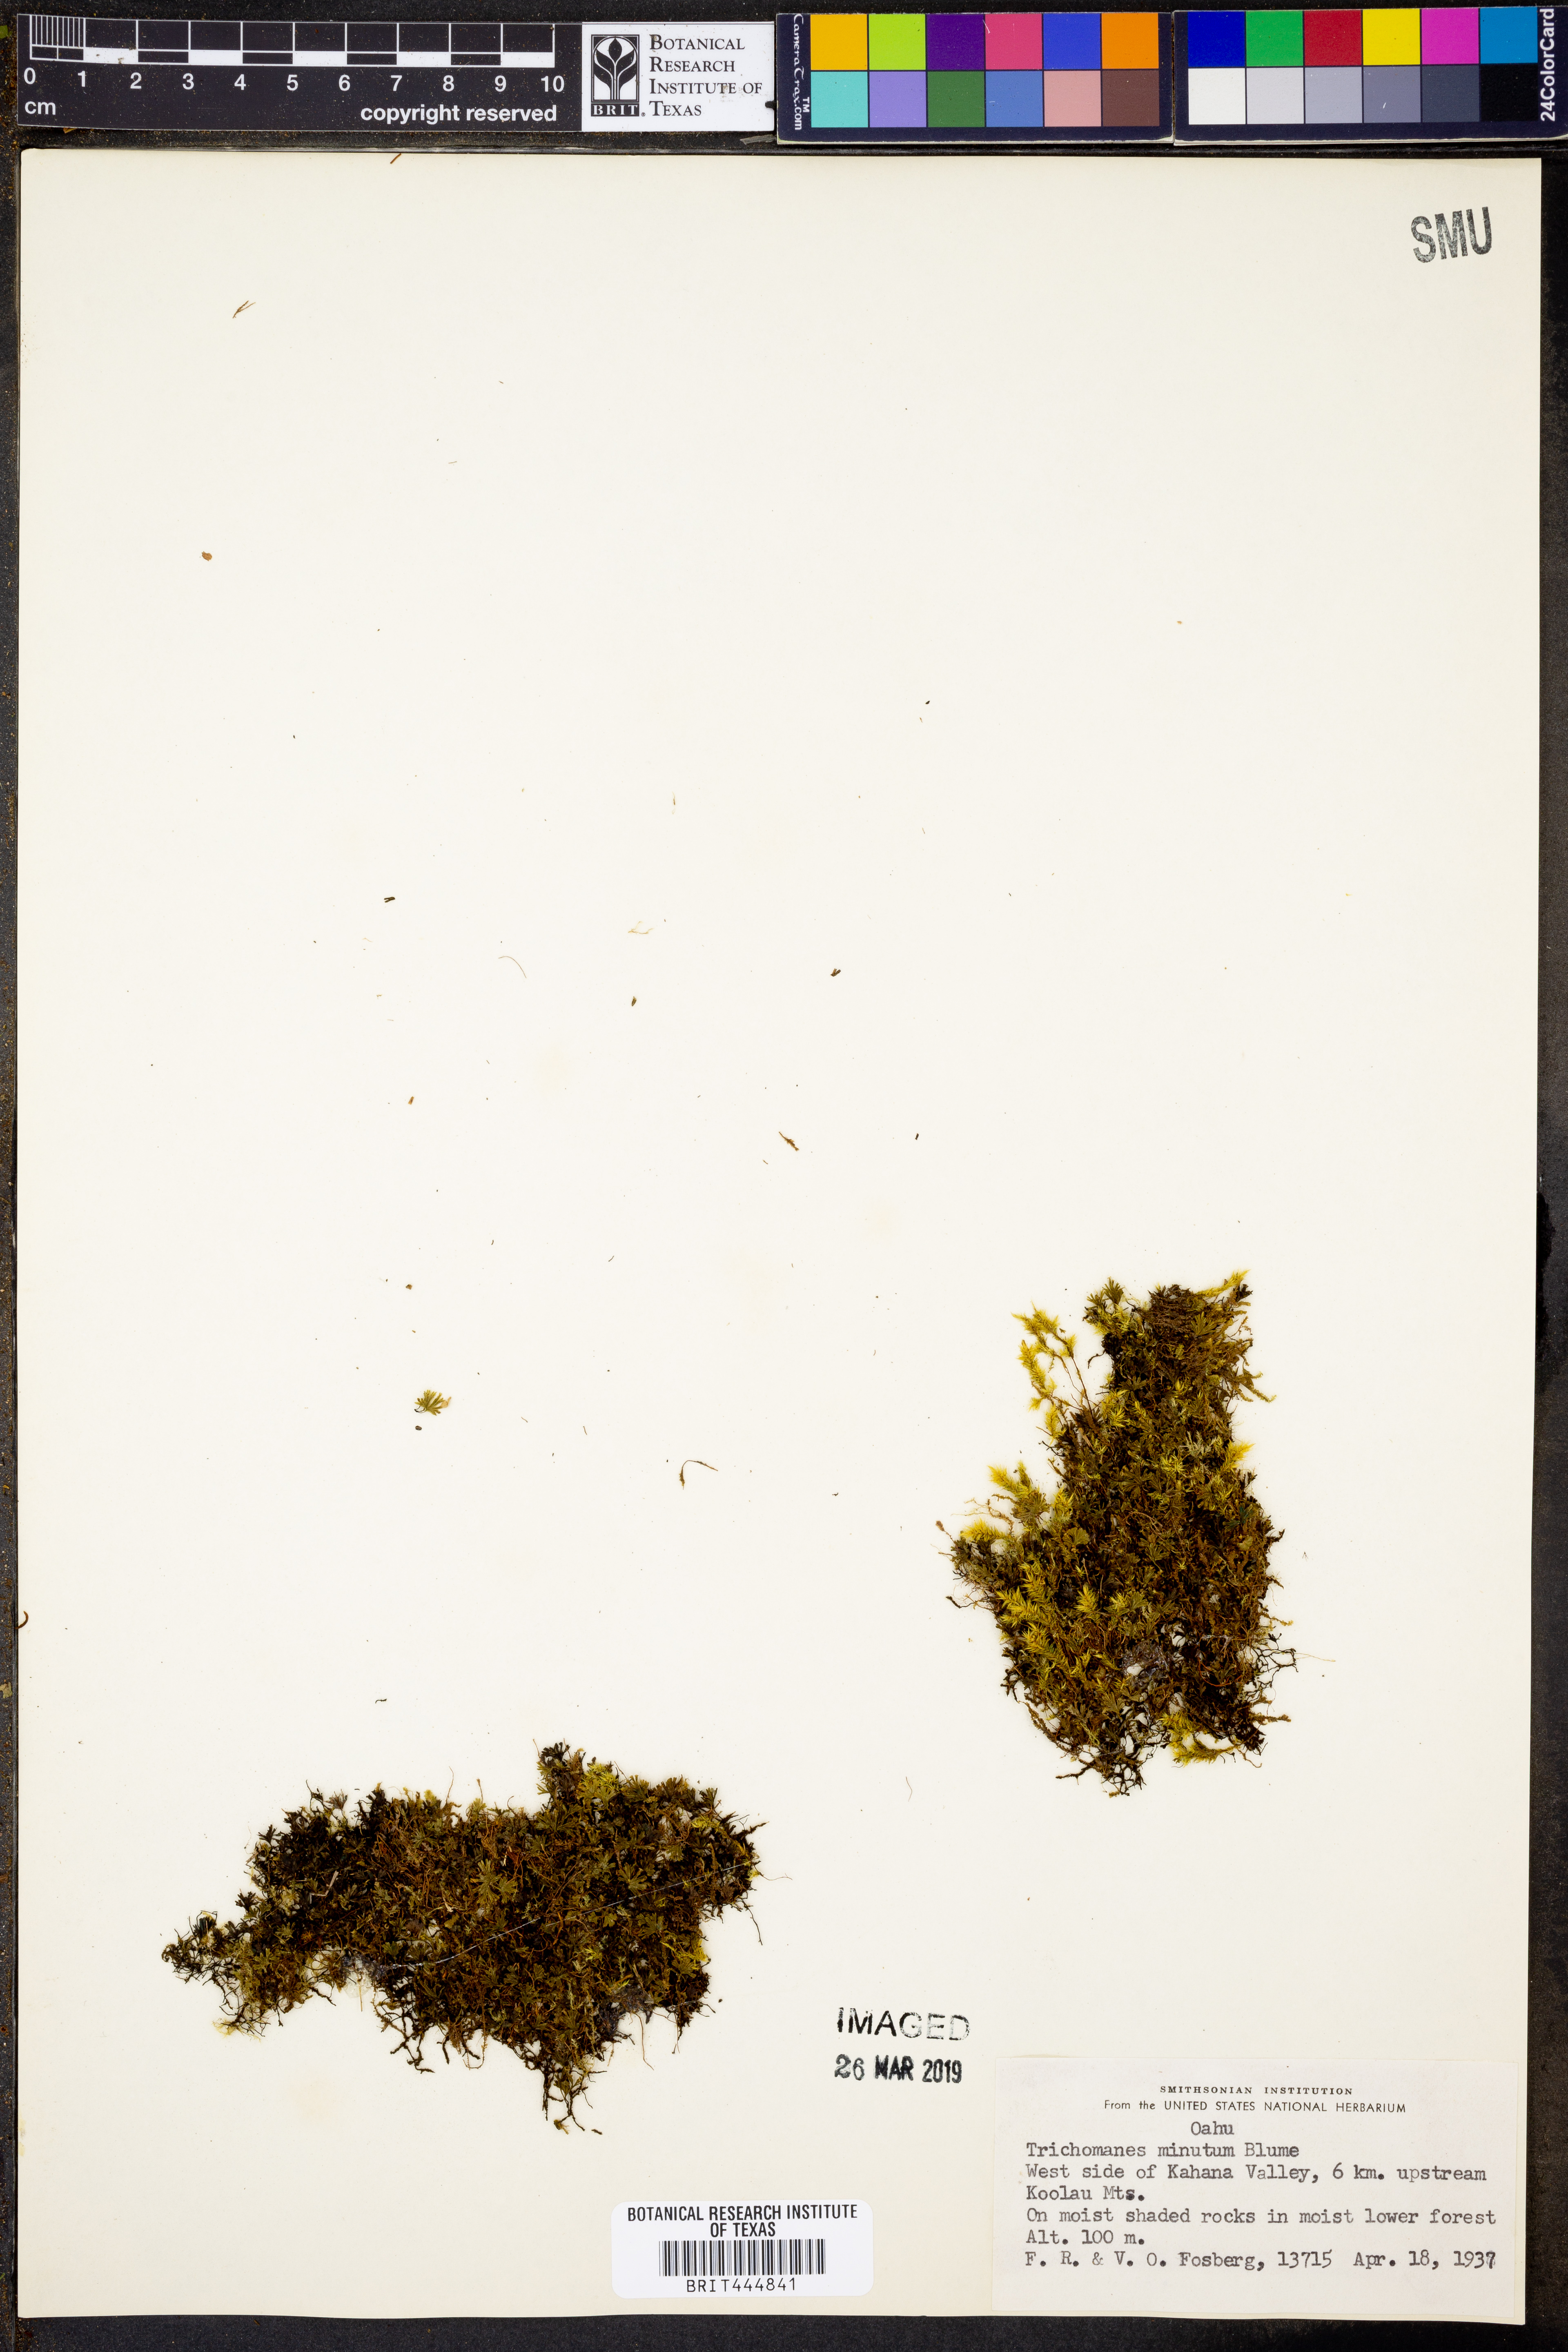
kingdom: Plantae
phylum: Tracheophyta
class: Polypodiopsida
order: Hymenophyllales
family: Hymenophyllaceae
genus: Crepidomanes
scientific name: Crepidomanes parvulum
